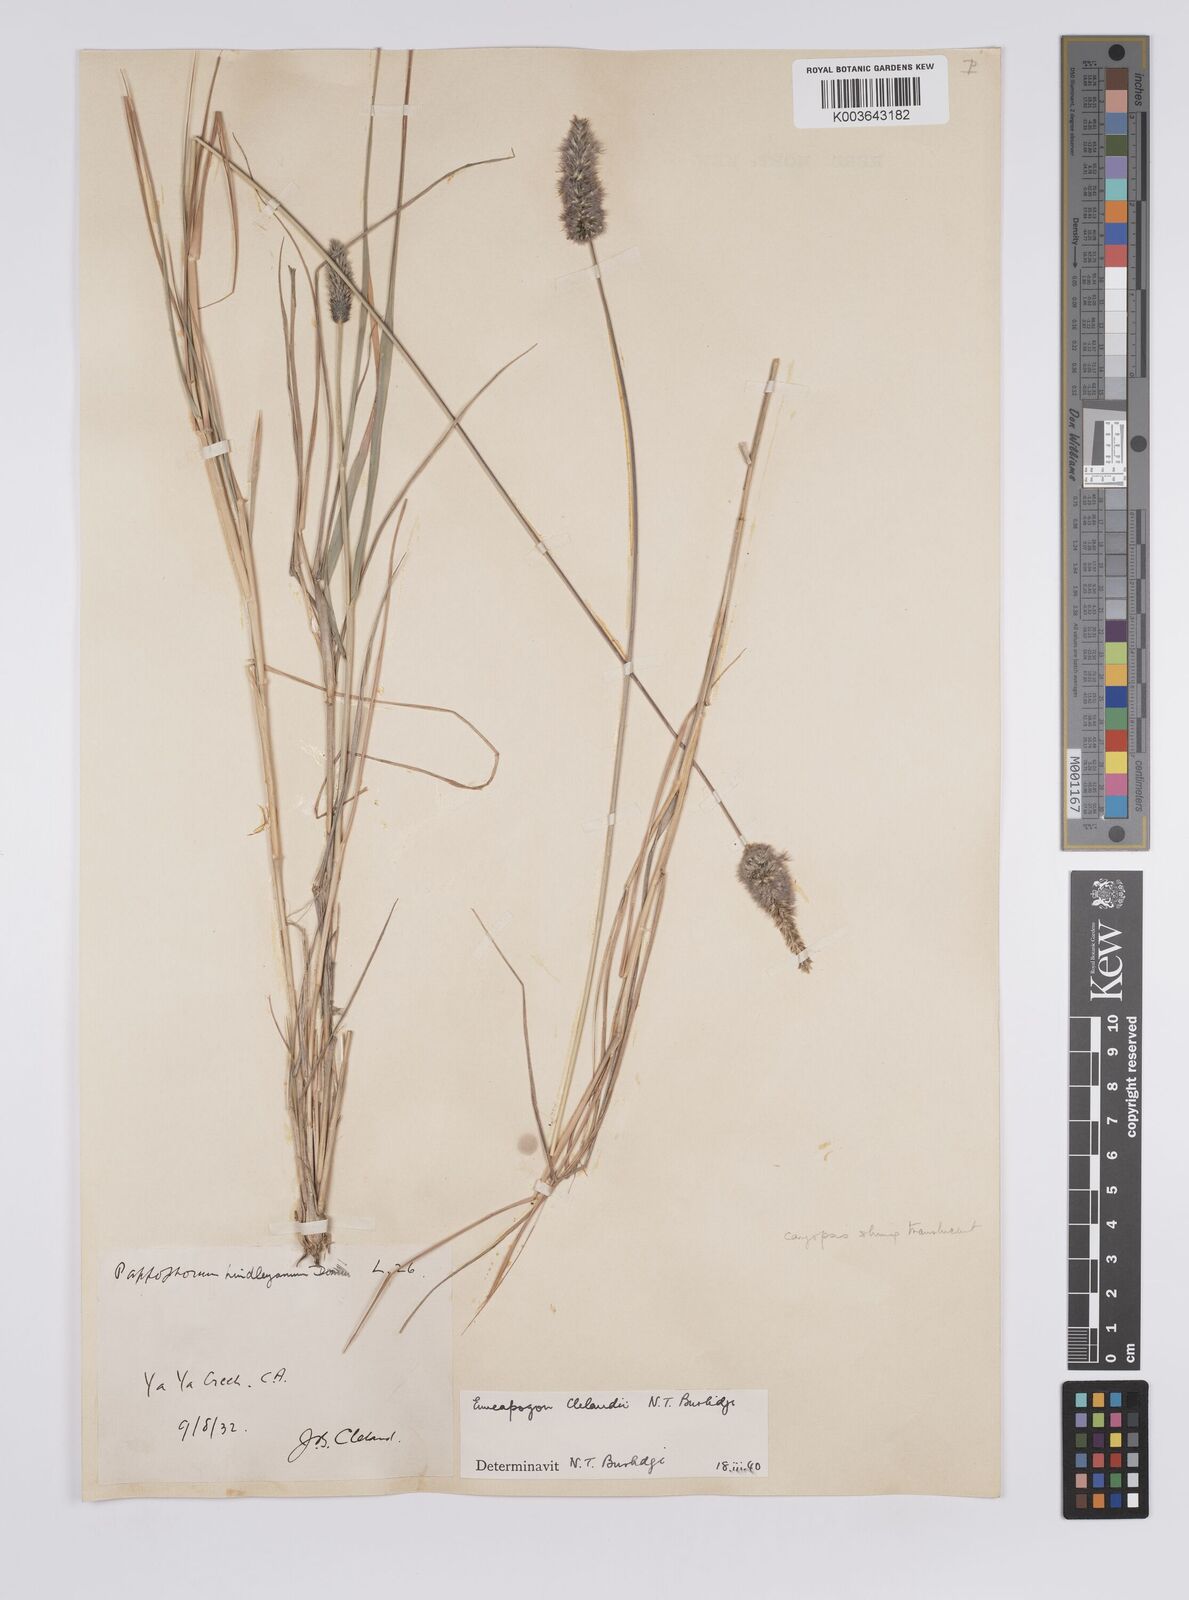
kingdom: Plantae
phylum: Tracheophyta
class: Liliopsida
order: Poales
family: Poaceae
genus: Enneapogon
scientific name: Enneapogon robustissimus
